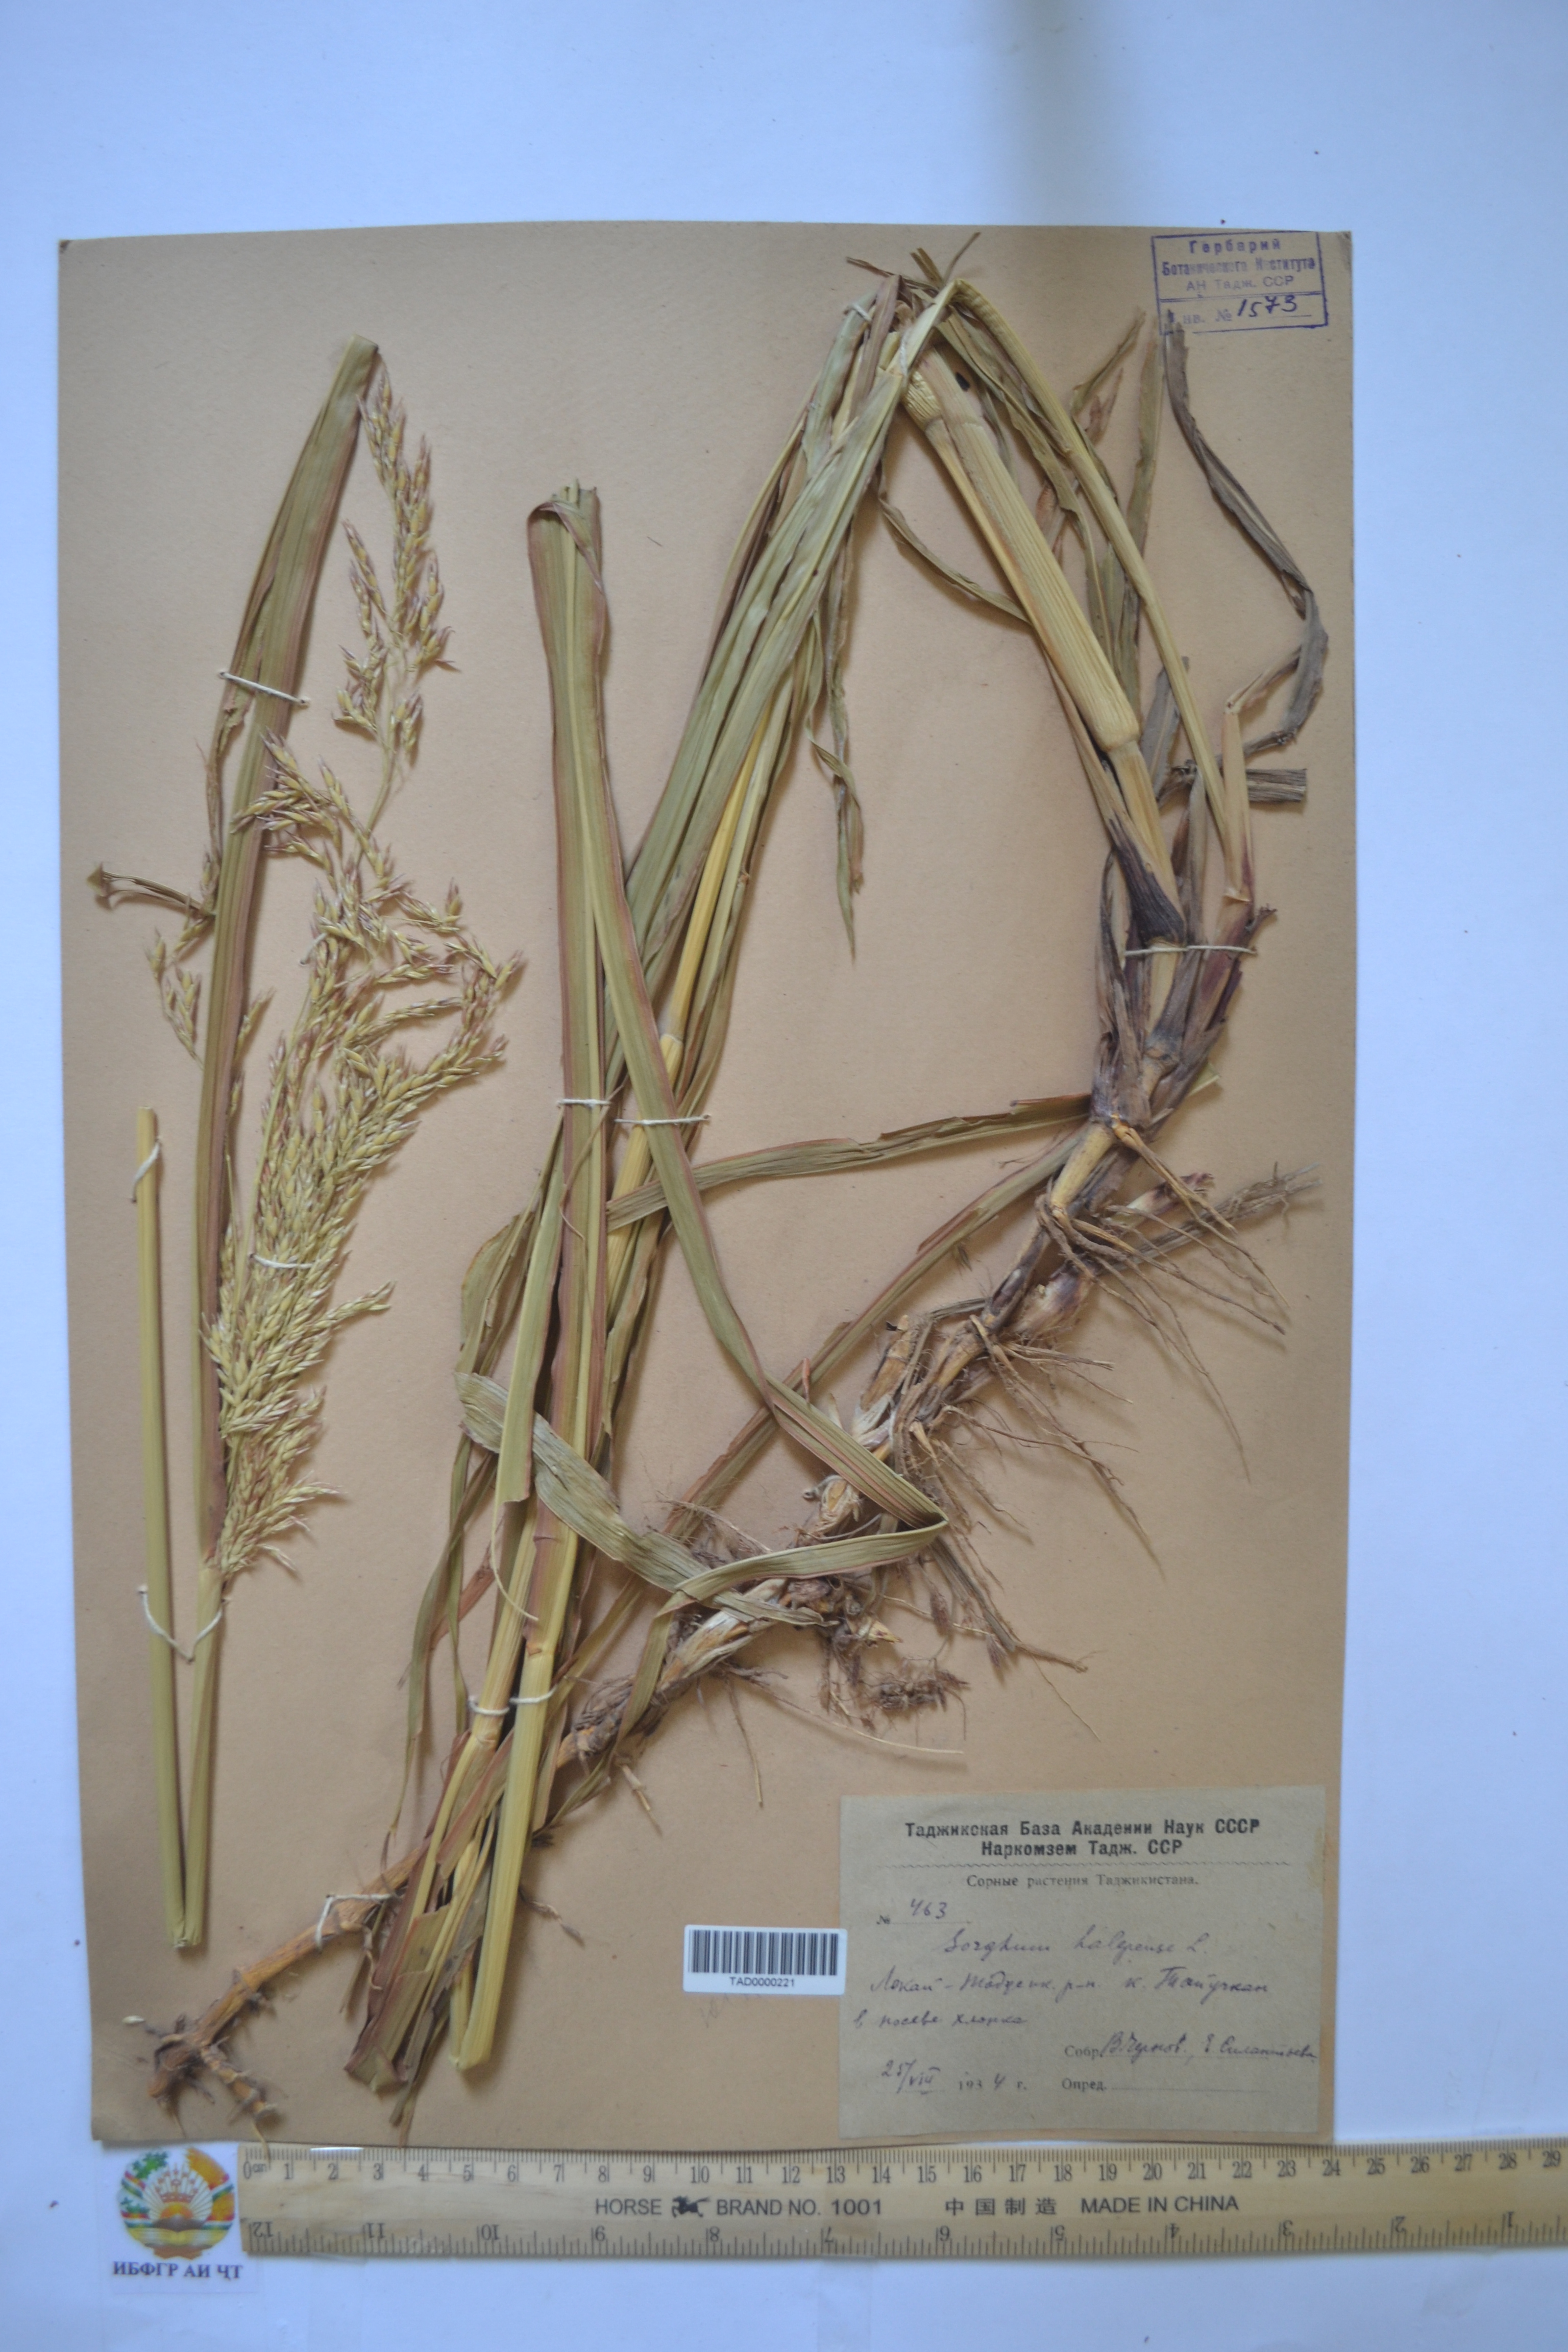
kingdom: Plantae
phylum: Tracheophyta
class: Liliopsida
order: Poales
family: Poaceae
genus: Sorghum
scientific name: Sorghum halepense
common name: Johnson-grass
